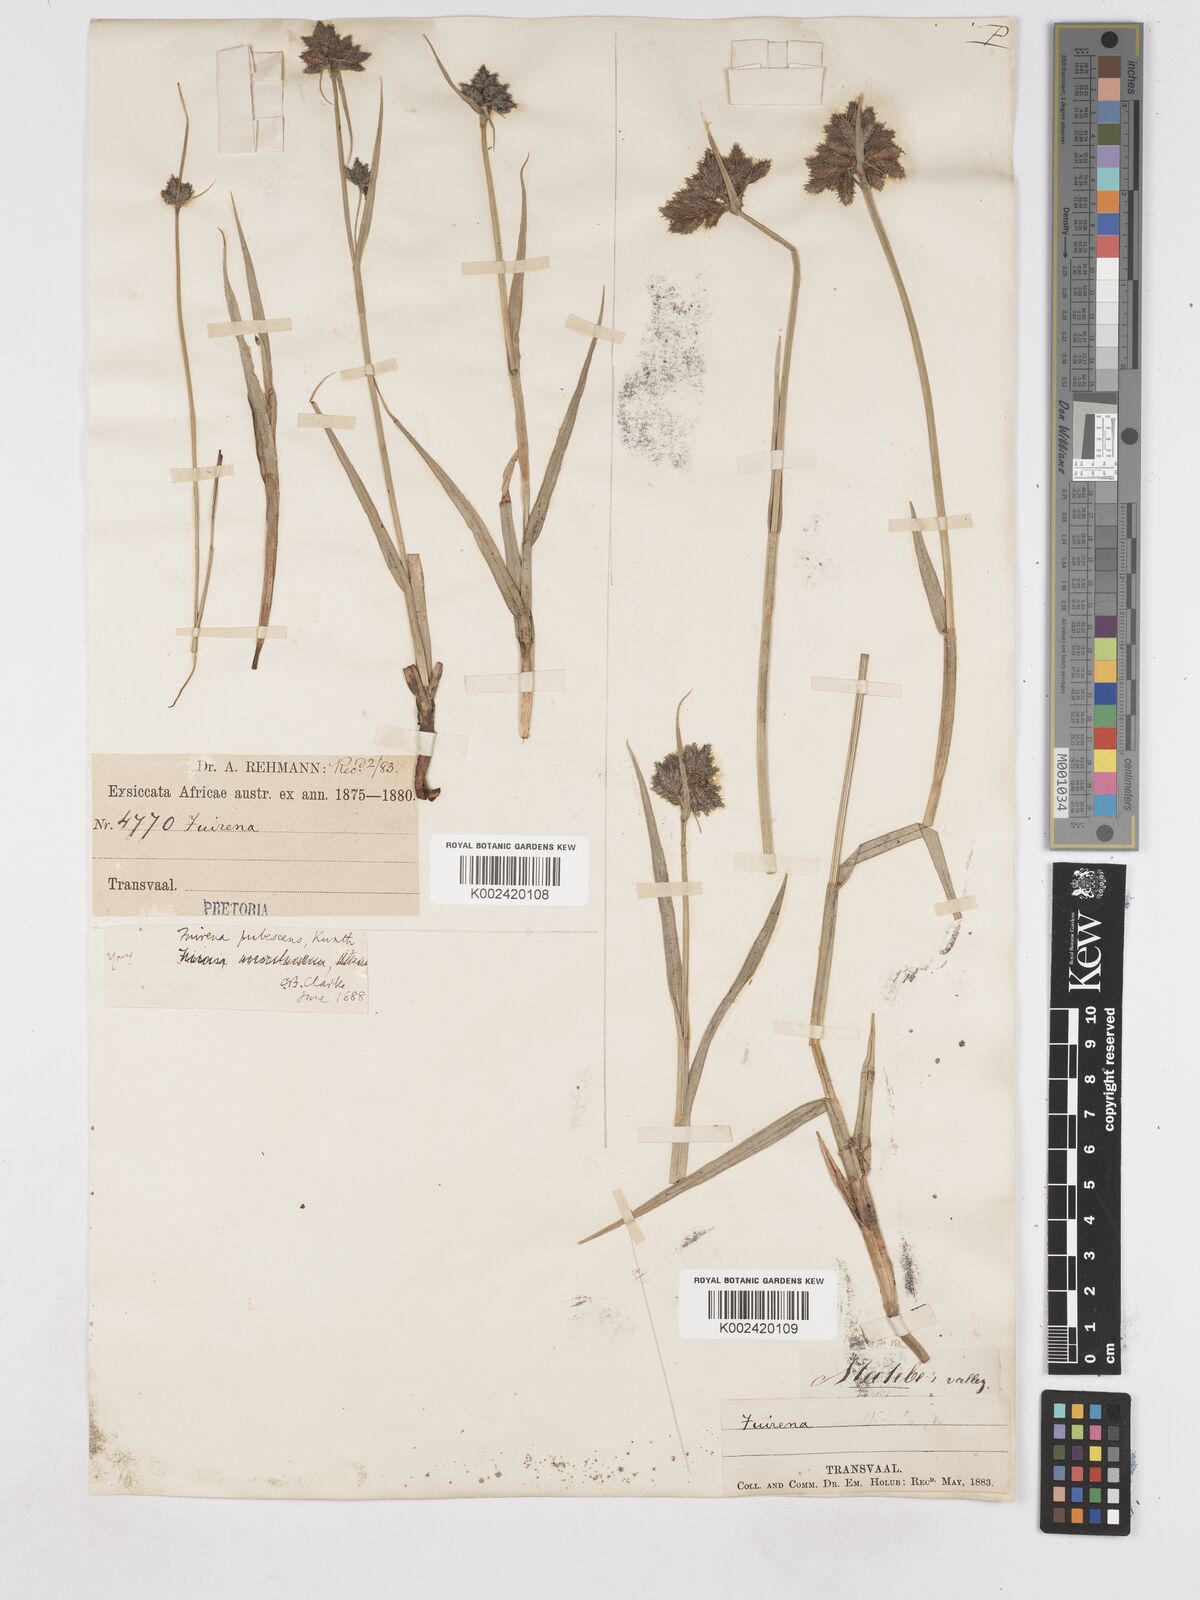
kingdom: Plantae
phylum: Tracheophyta
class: Liliopsida
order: Poales
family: Cyperaceae
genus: Fuirena
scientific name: Fuirena pubescens
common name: Hairy sedge
